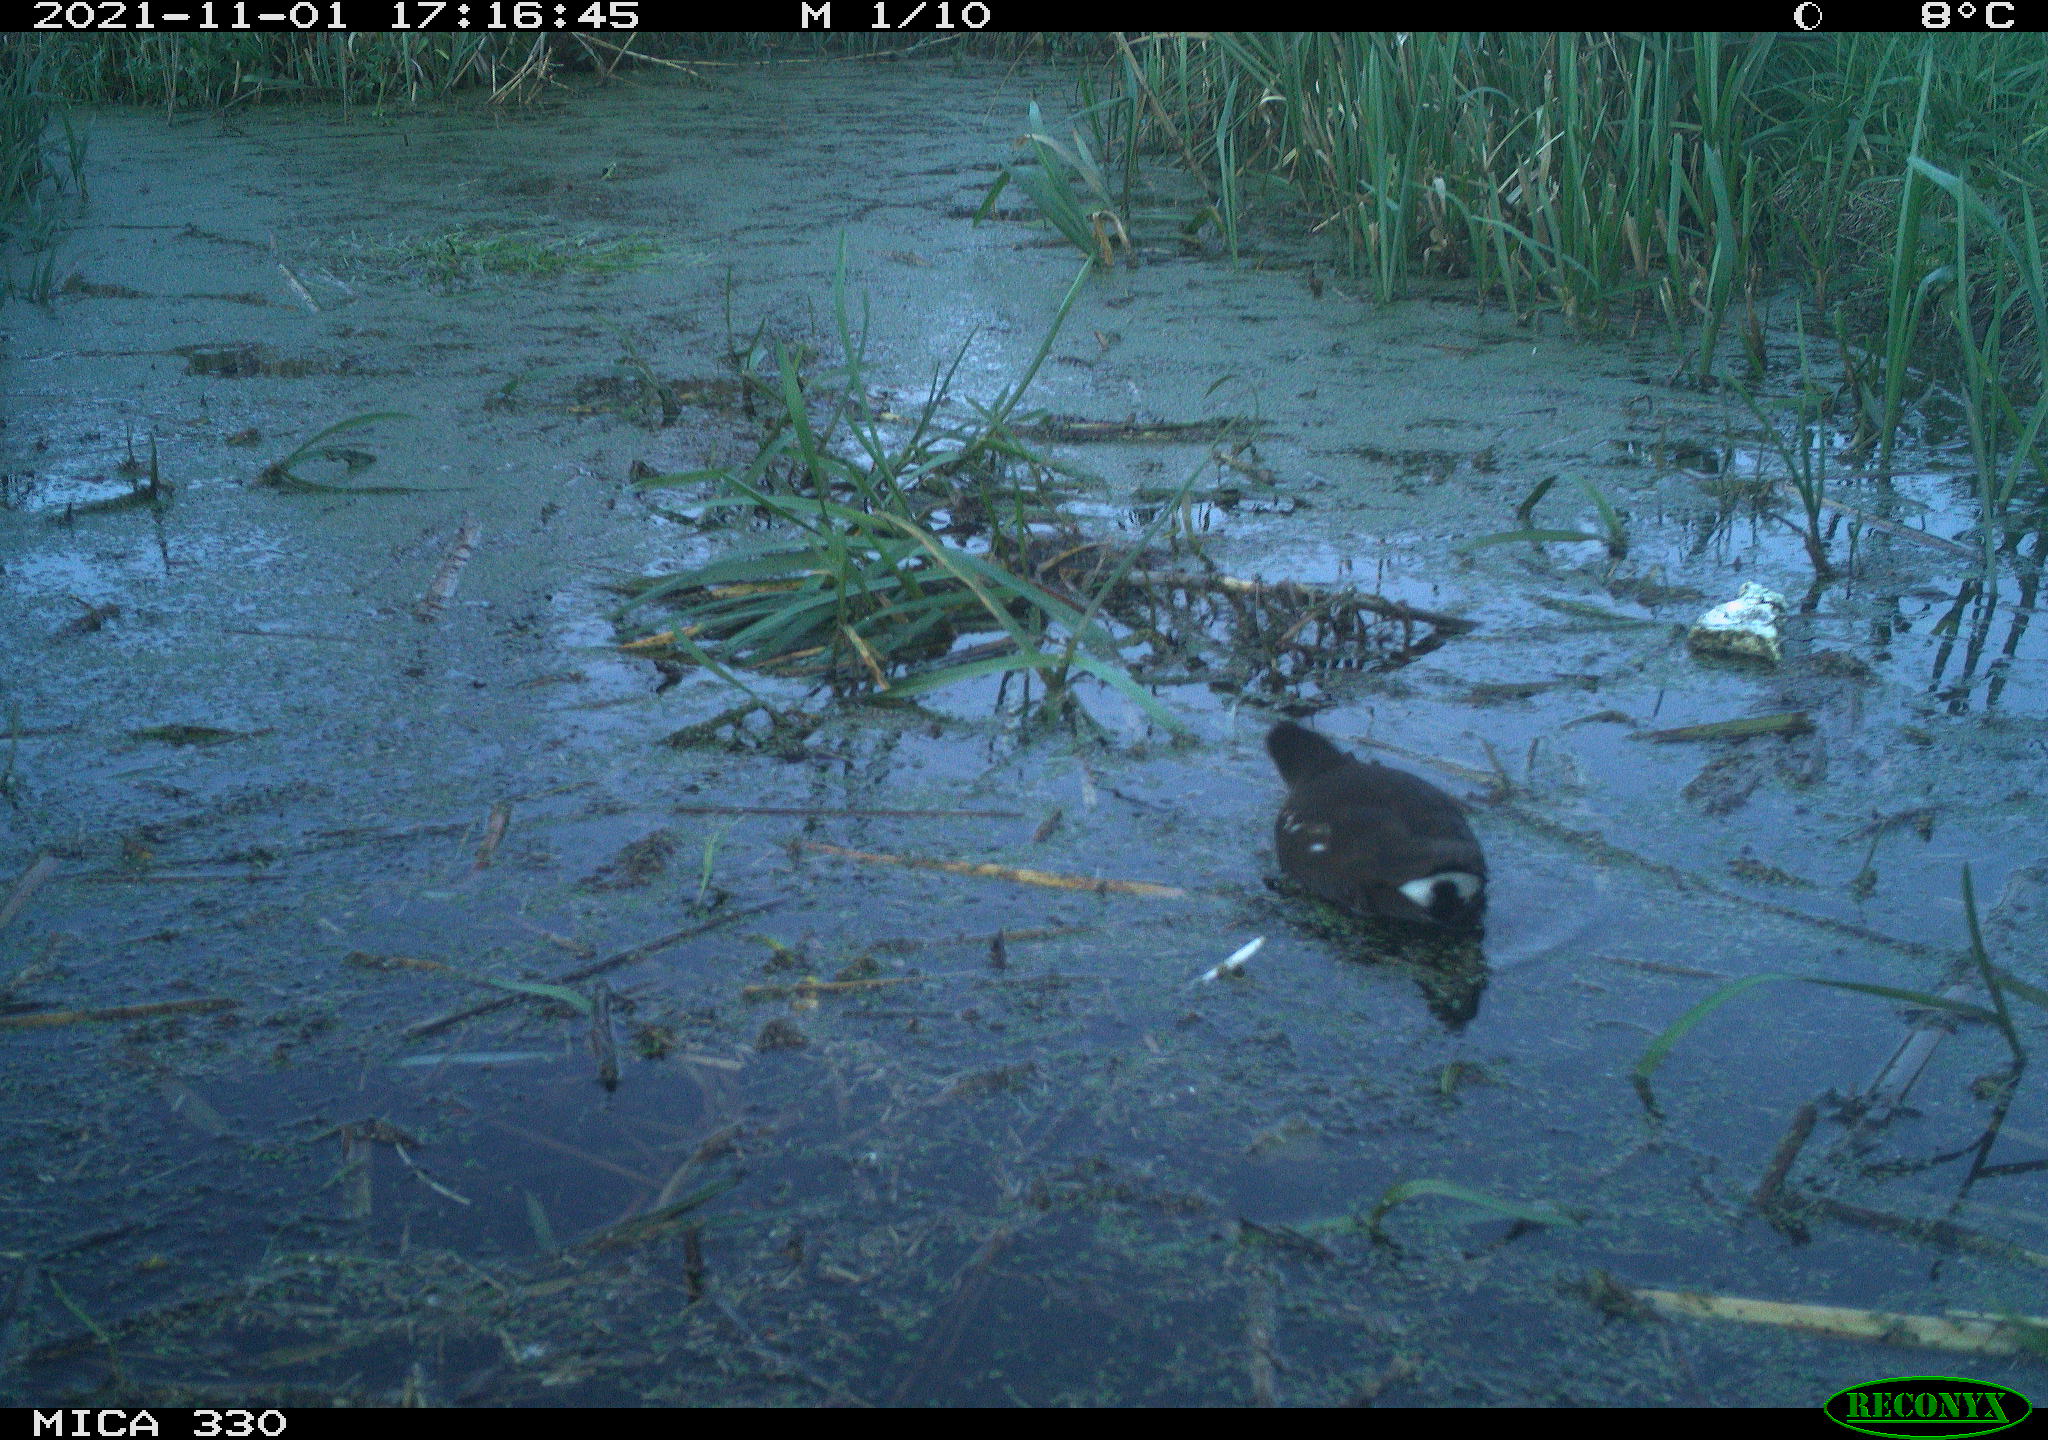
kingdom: Animalia
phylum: Chordata
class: Aves
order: Gruiformes
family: Rallidae
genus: Gallinula
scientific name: Gallinula chloropus
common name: Common moorhen
